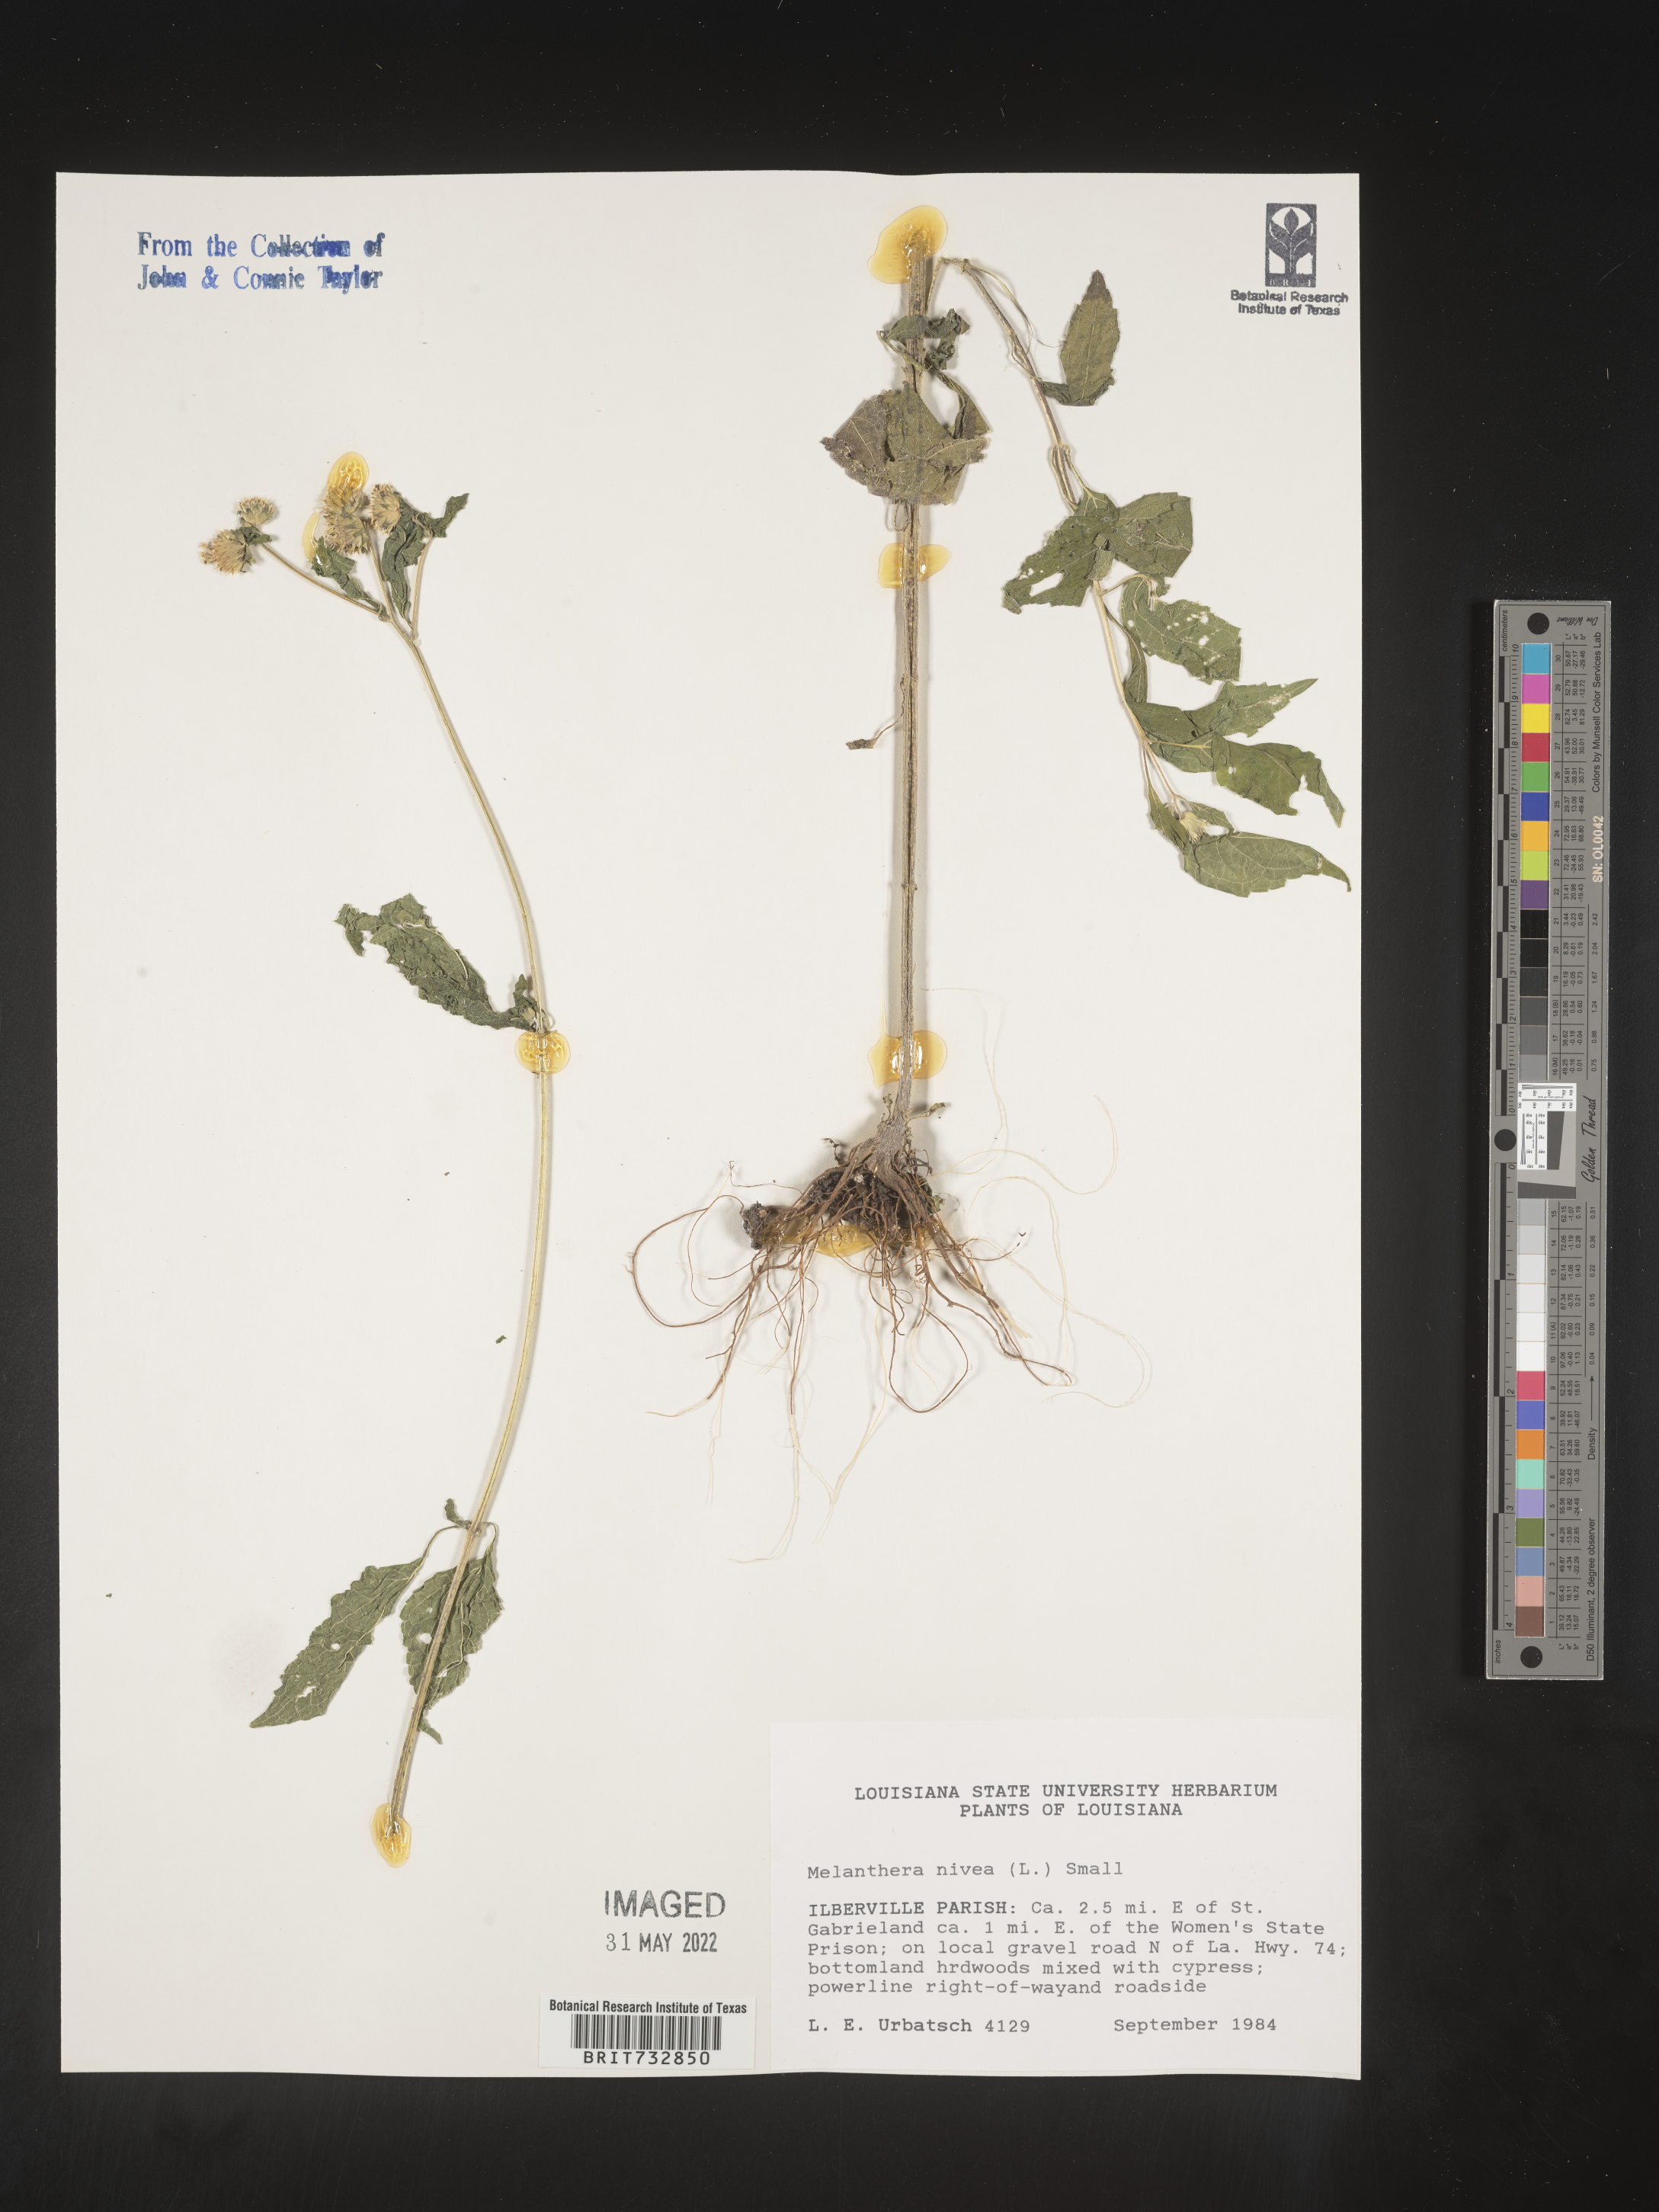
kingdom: Plantae
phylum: Tracheophyta
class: Magnoliopsida
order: Asterales
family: Asteraceae
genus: Melanthera
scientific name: Melanthera nivea
